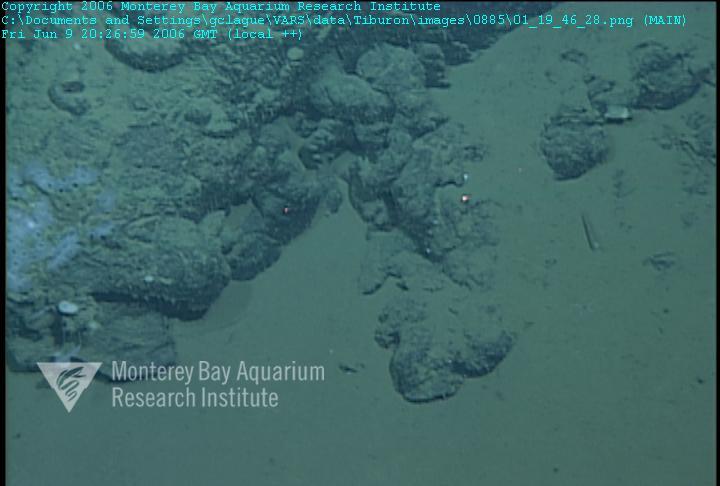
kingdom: Animalia
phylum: Porifera
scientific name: Porifera
